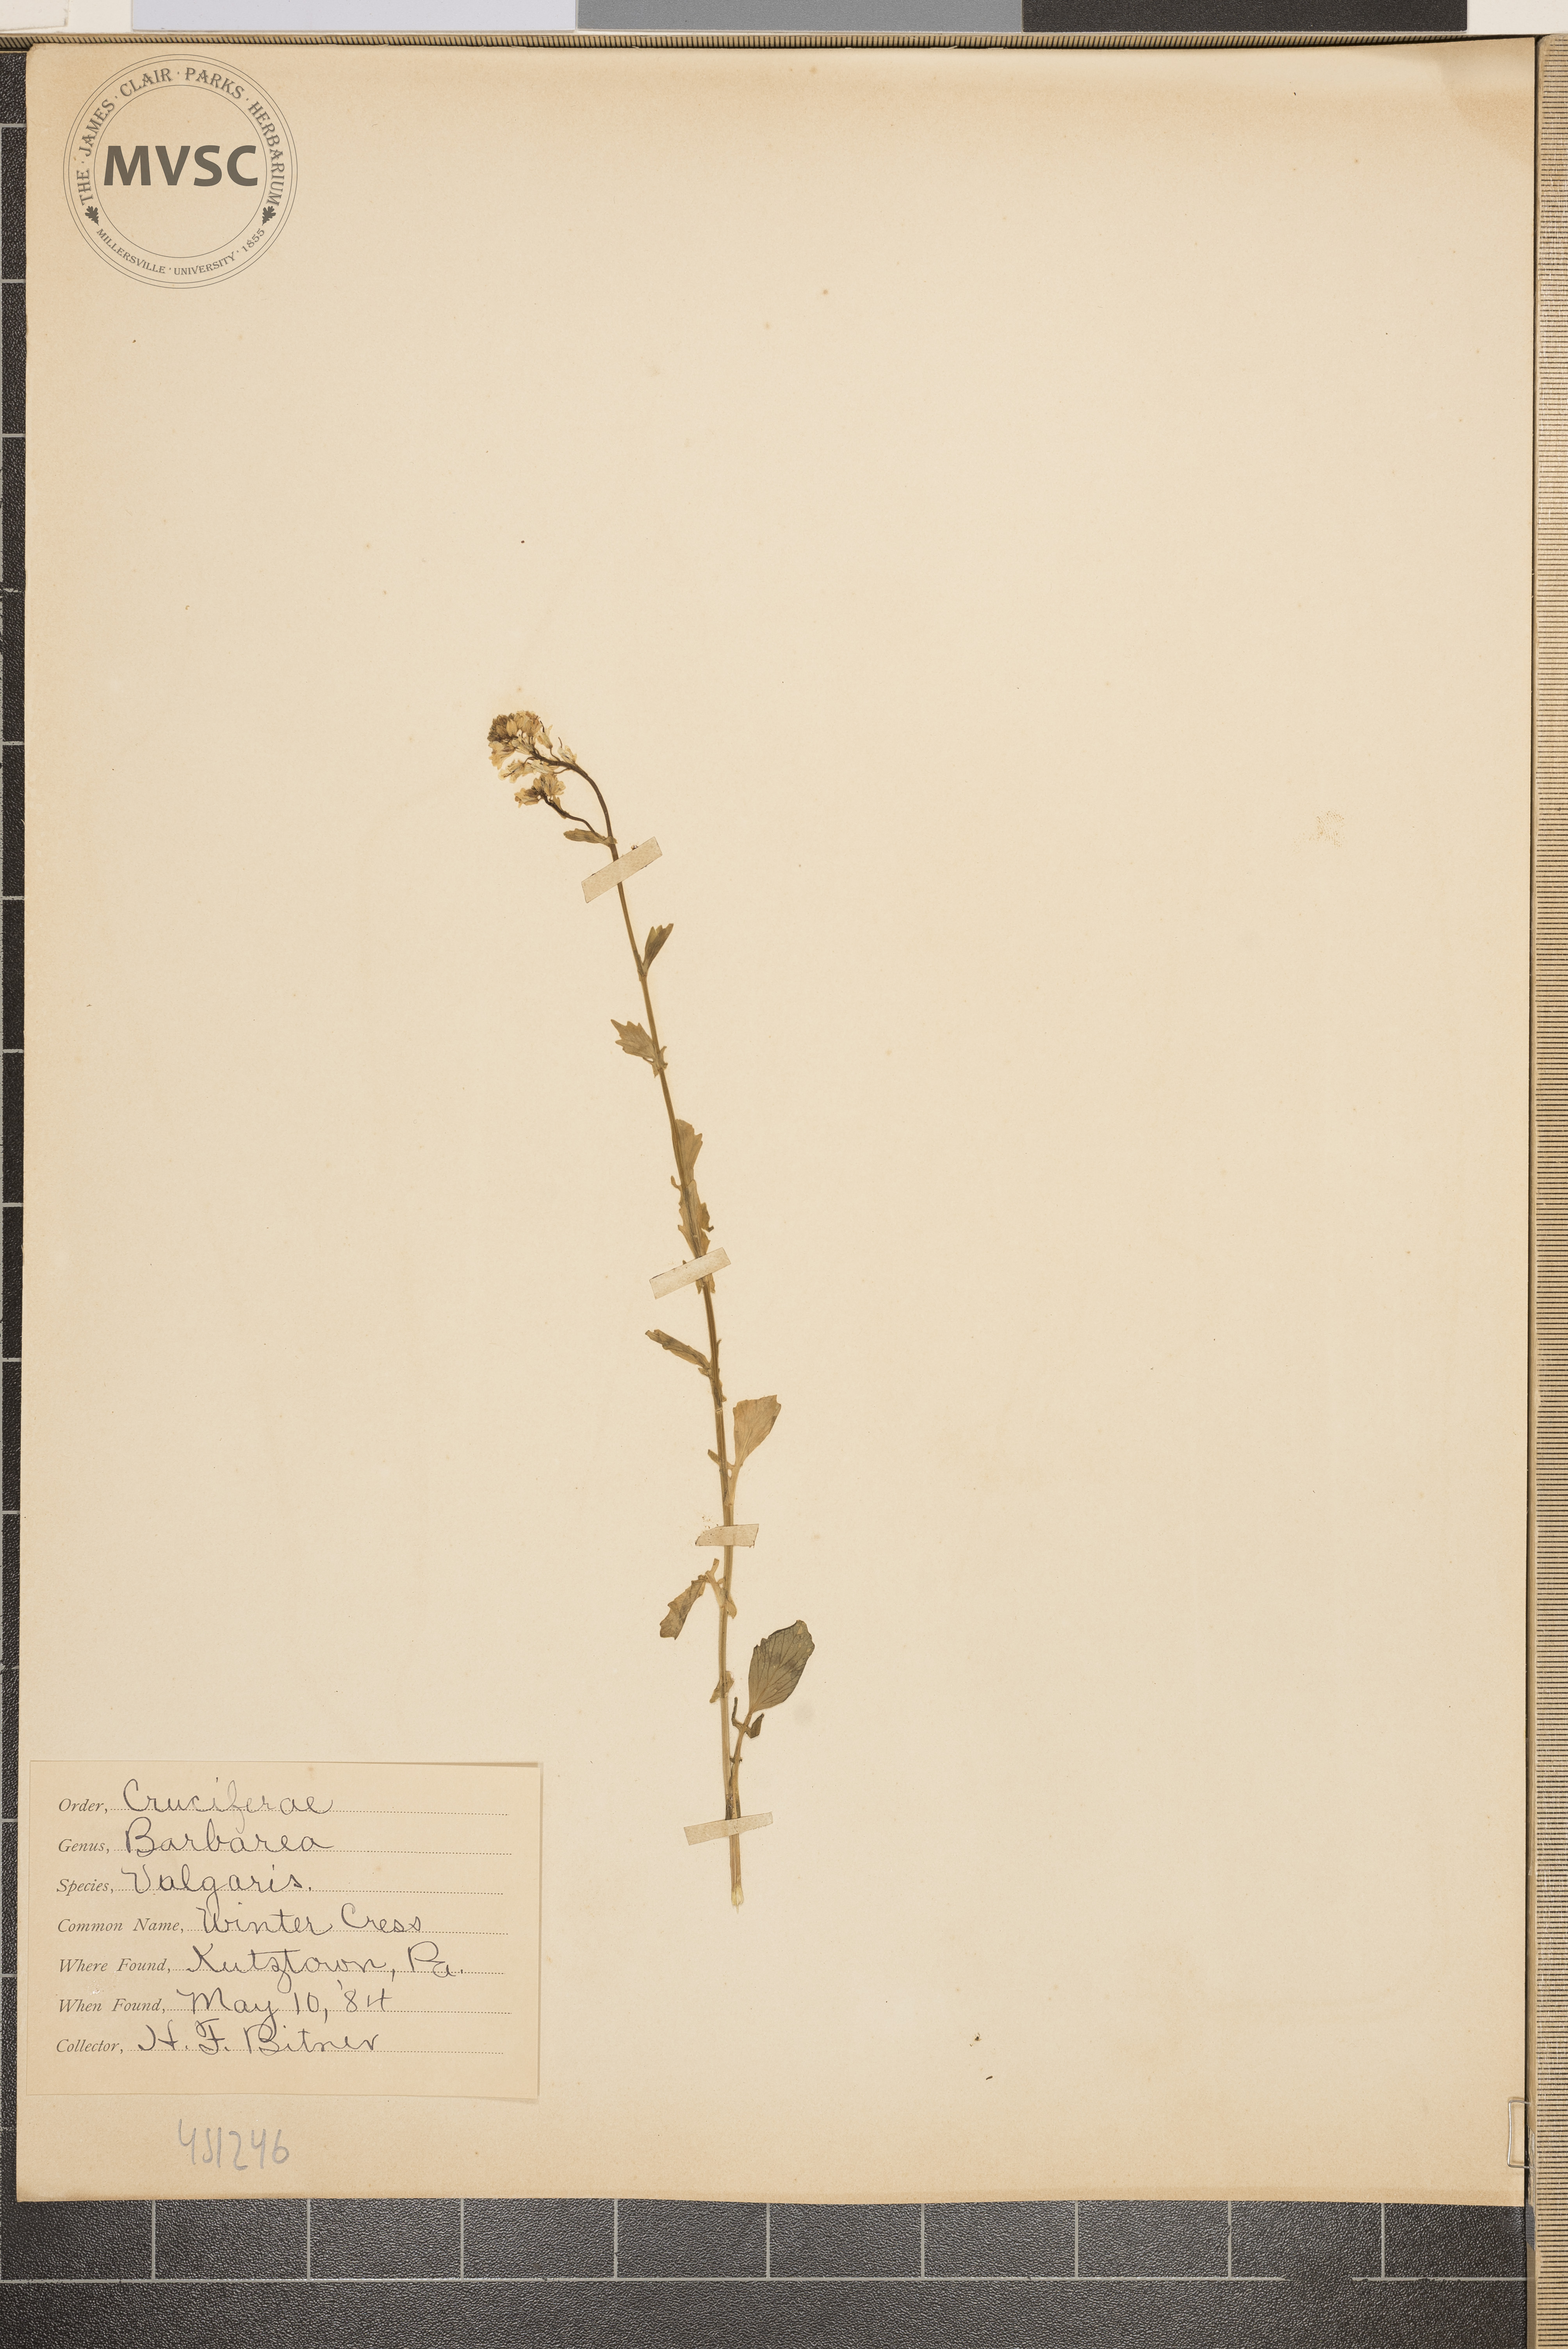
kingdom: Plantae
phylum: Tracheophyta
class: Magnoliopsida
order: Brassicales
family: Brassicaceae
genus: Barbarea
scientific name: Barbarea vulgaris
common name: Winter cress
